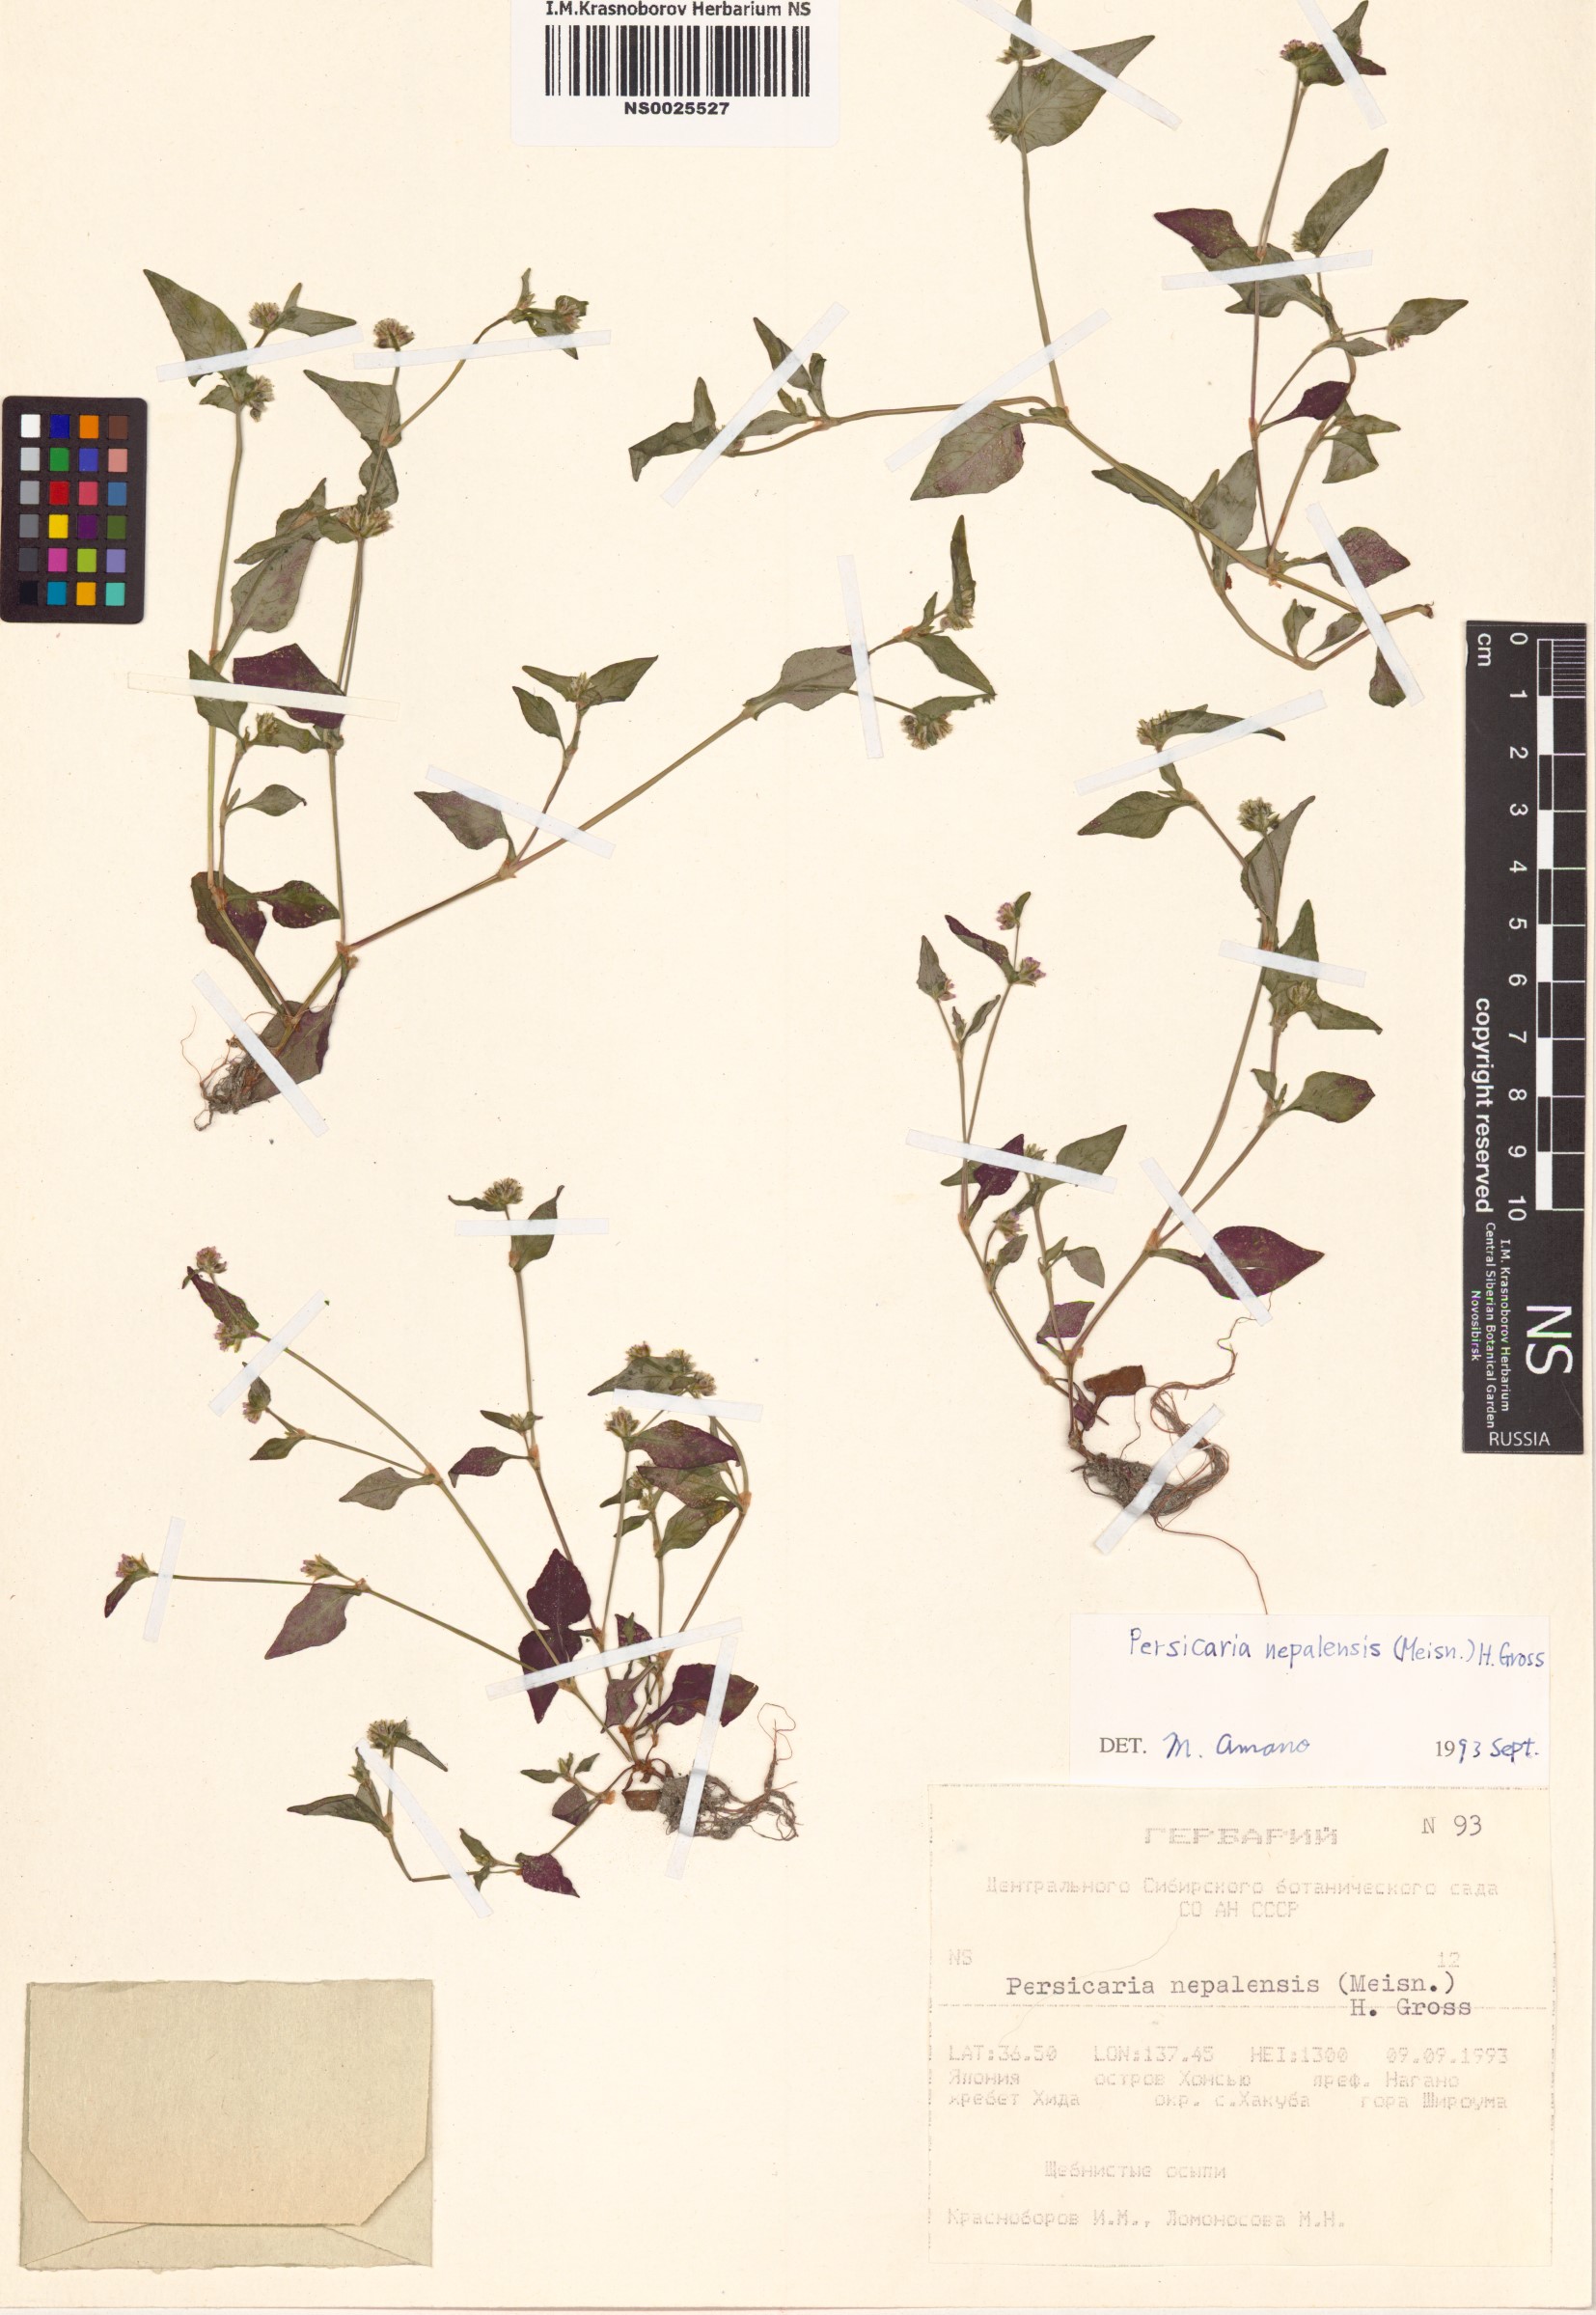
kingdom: Plantae
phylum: Tracheophyta
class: Magnoliopsida
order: Caryophyllales
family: Polygonaceae
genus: Persicaria
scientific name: Persicaria nepalensis
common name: Nepal persicaria
